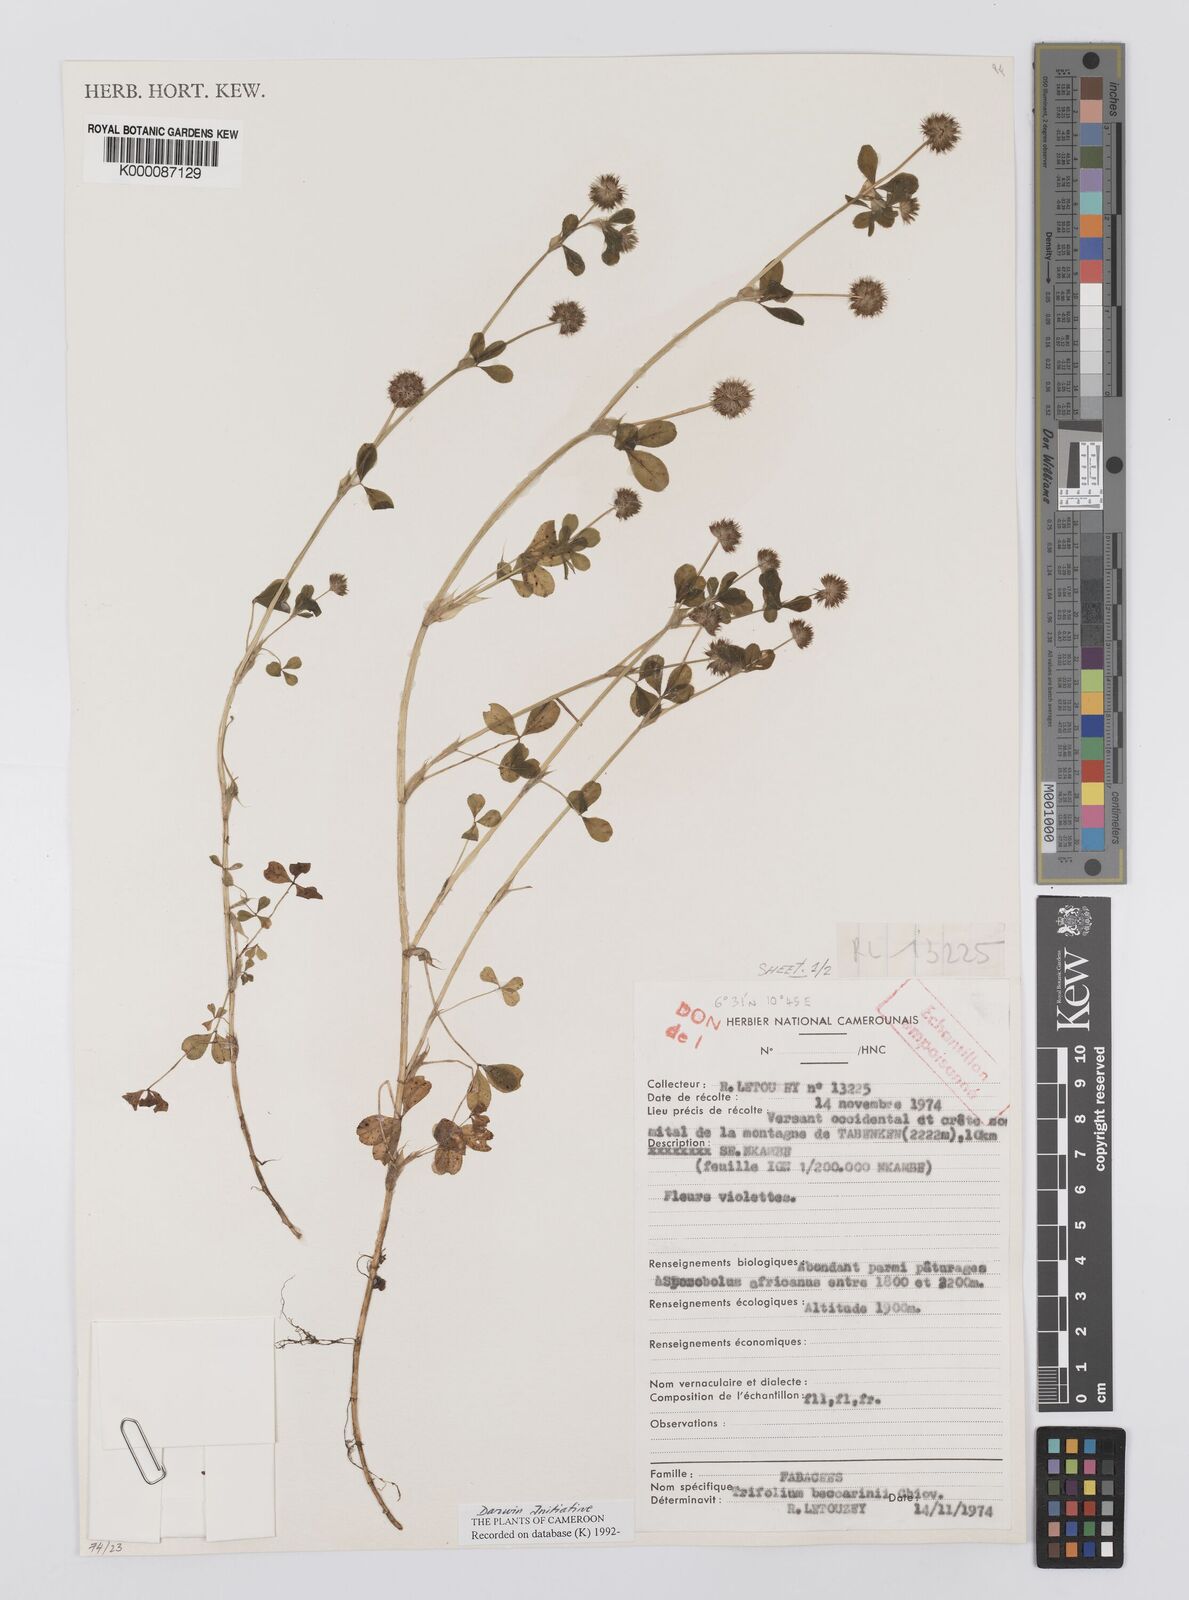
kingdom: Plantae
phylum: Tracheophyta
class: Magnoliopsida
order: Fabales
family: Fabaceae
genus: Trifolium
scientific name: Trifolium baccarinii
